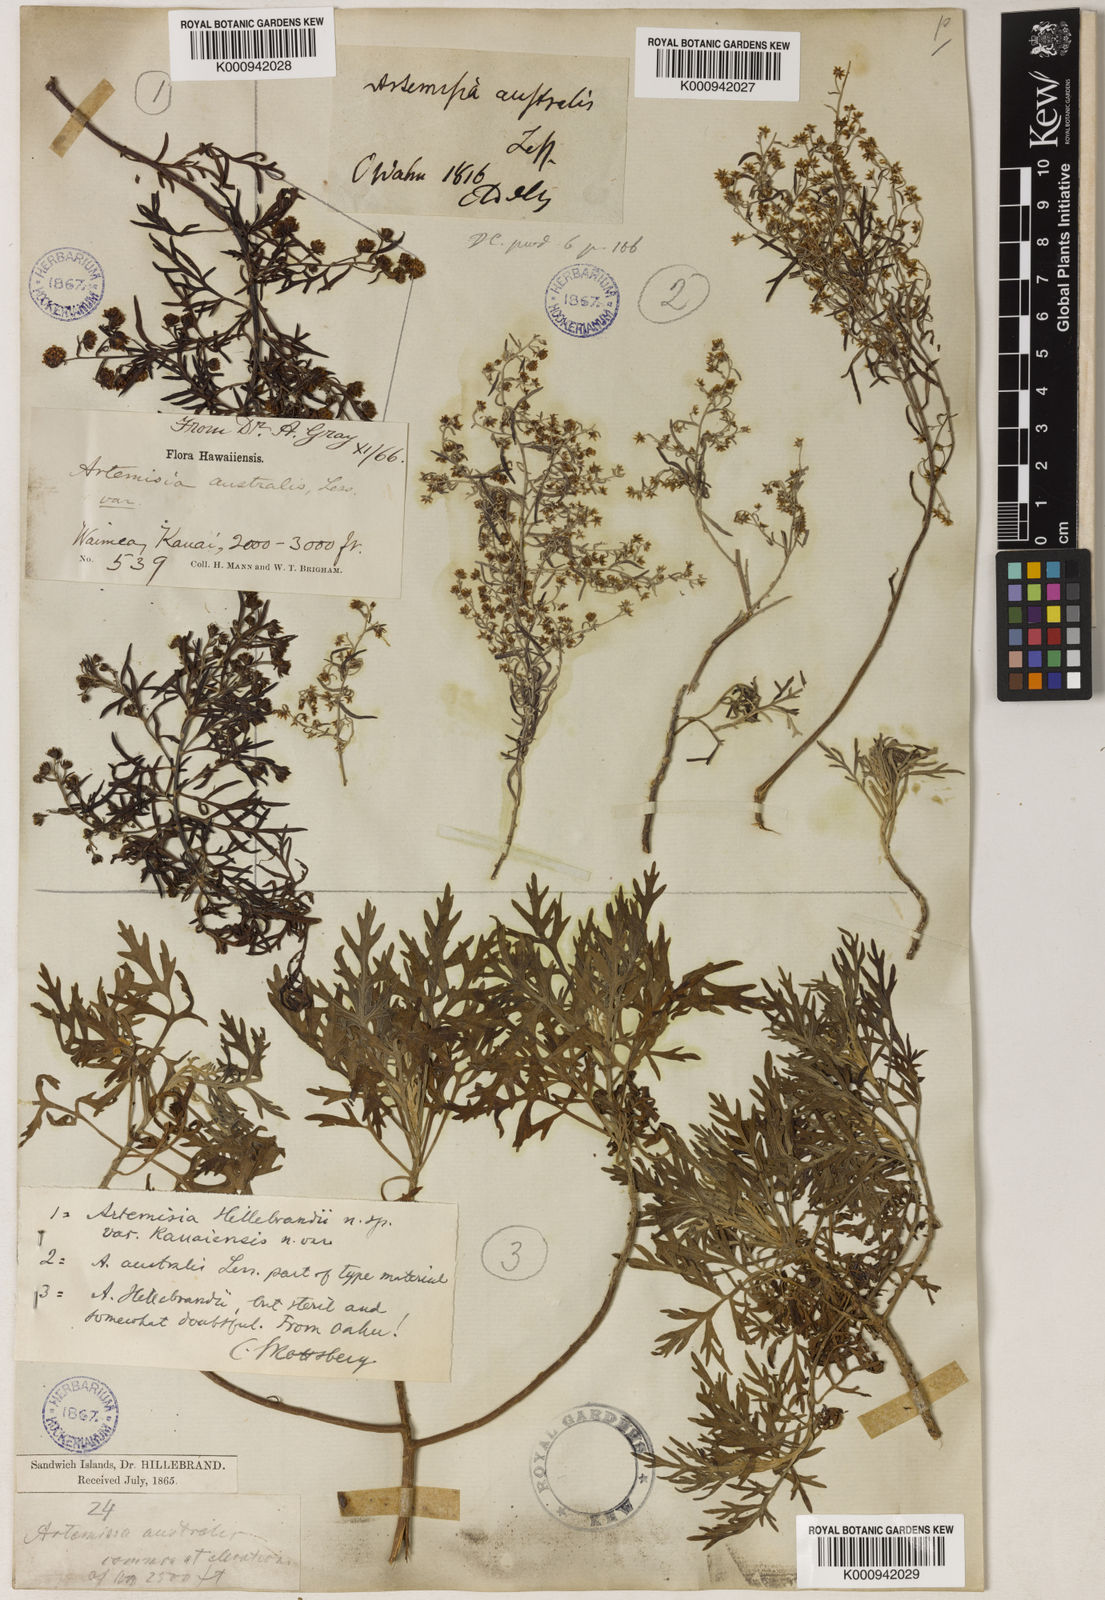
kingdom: Plantae
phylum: Tracheophyta
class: Magnoliopsida
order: Asterales
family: Asteraceae
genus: Artemisia
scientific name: Artemisia australis
